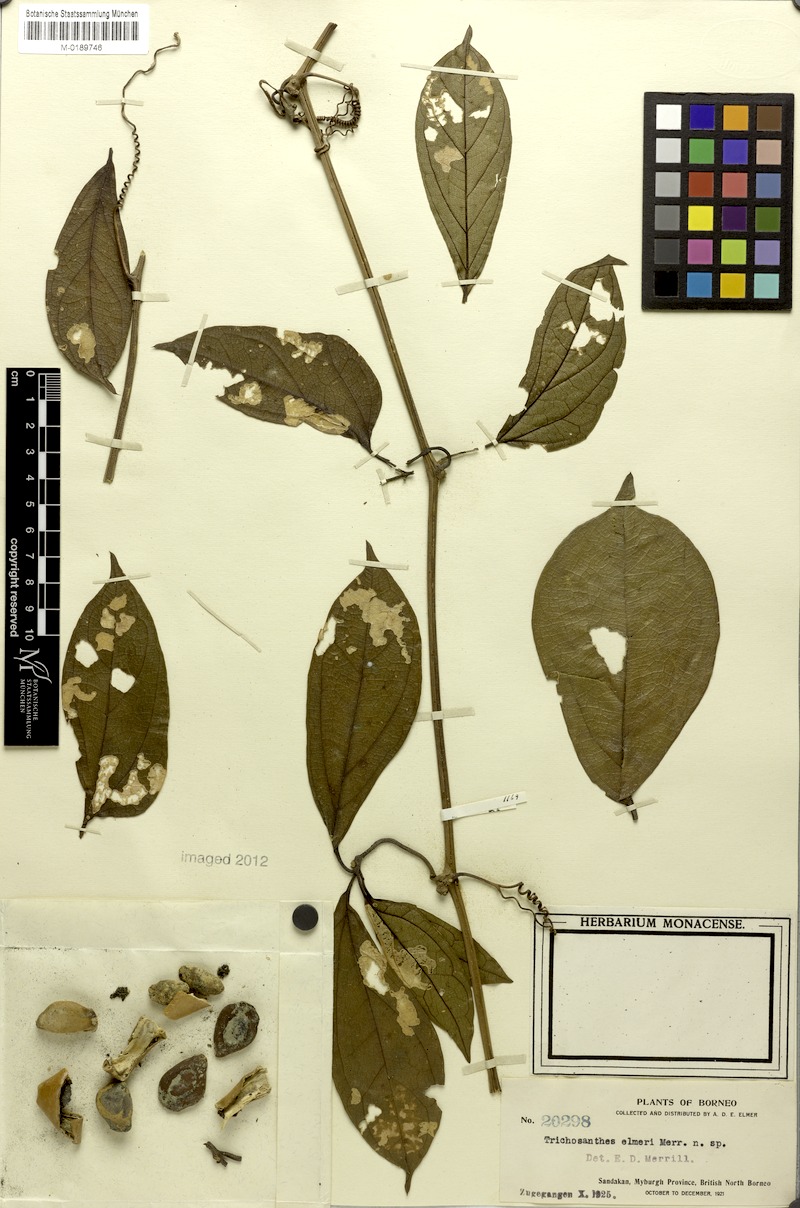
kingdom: Plantae
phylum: Tracheophyta
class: Magnoliopsida
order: Cucurbitales
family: Cucurbitaceae
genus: Trichosanthes
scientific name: Trichosanthes elmeri
